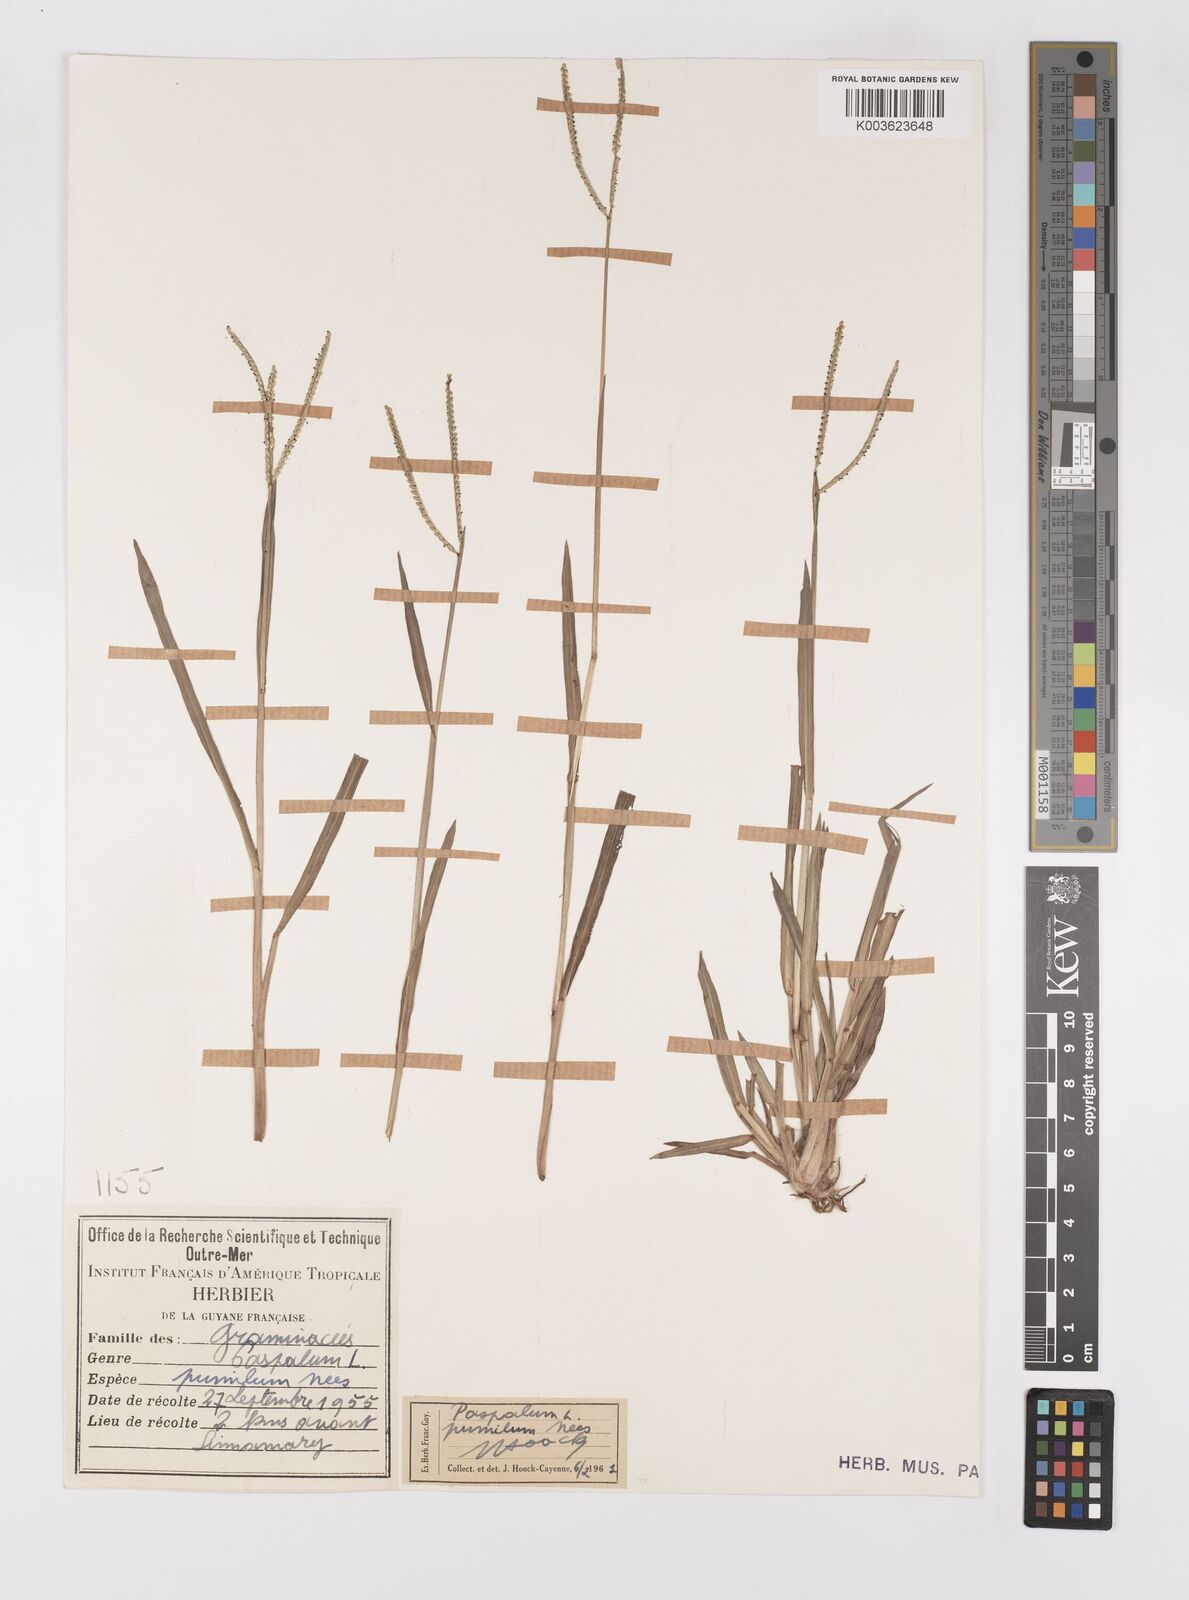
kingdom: Plantae
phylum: Tracheophyta
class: Liliopsida
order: Poales
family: Poaceae
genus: Paspalum
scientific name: Paspalum pumilum
